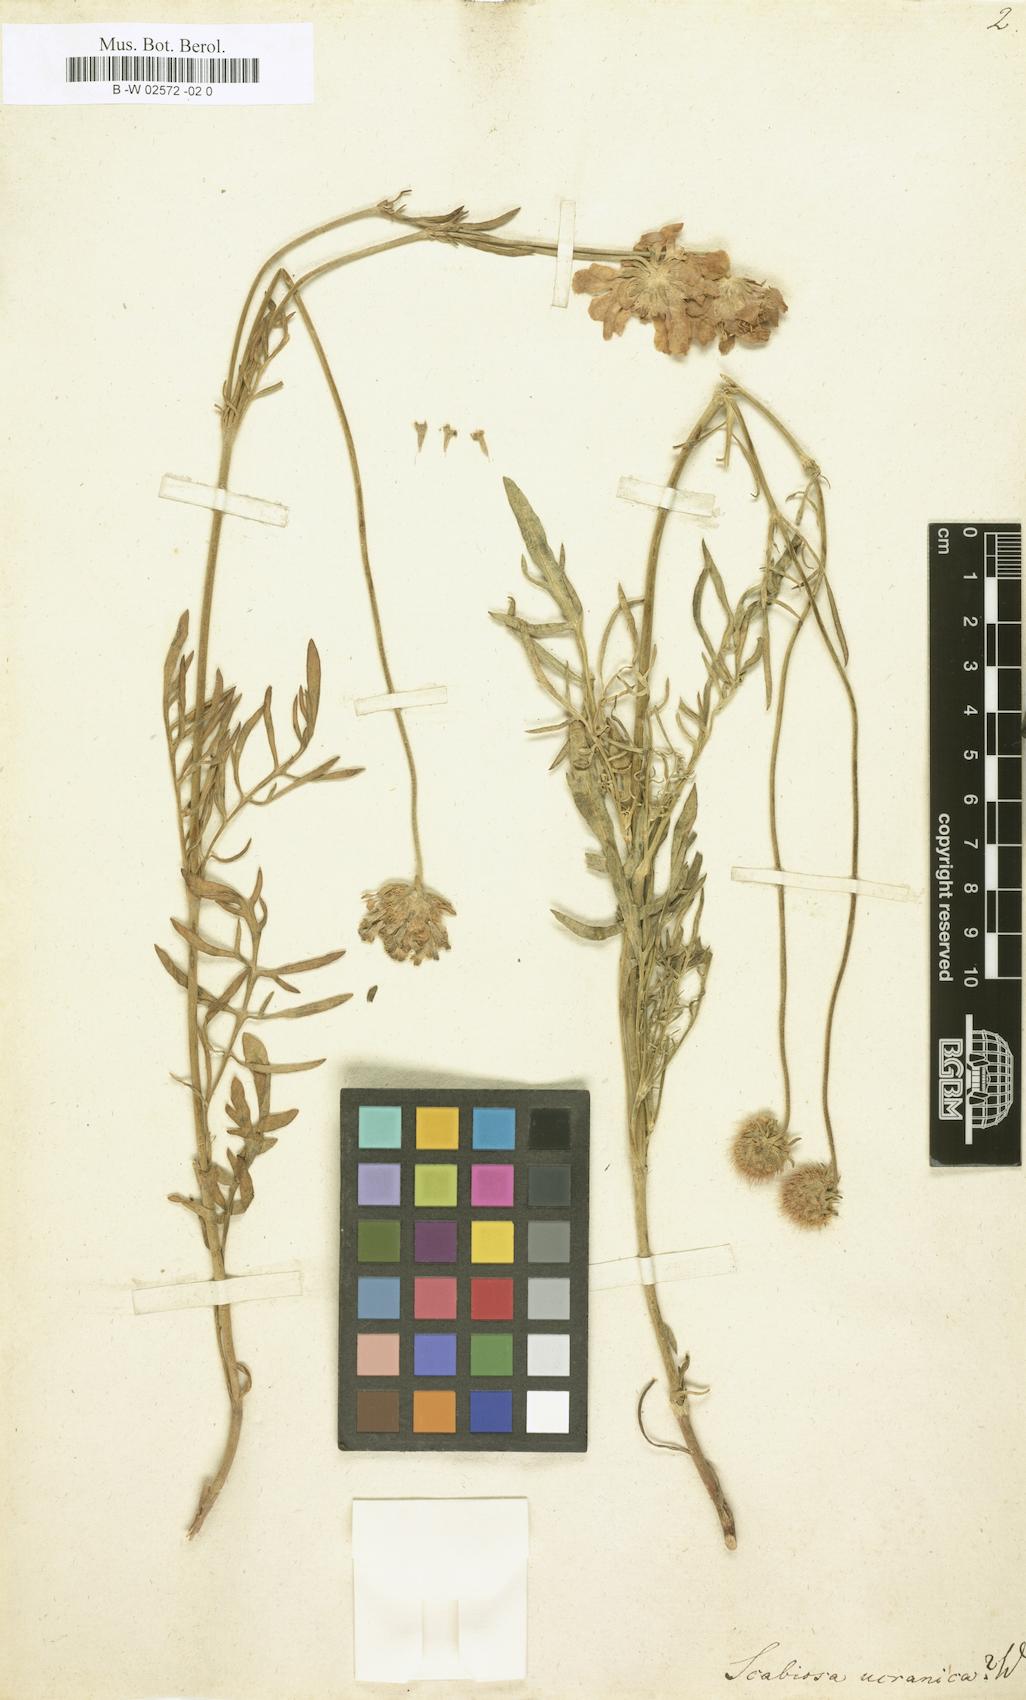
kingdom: Plantae
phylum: Tracheophyta
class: Magnoliopsida
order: Dipsacales
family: Caprifoliaceae
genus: Lomelosia
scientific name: Lomelosia argentea
